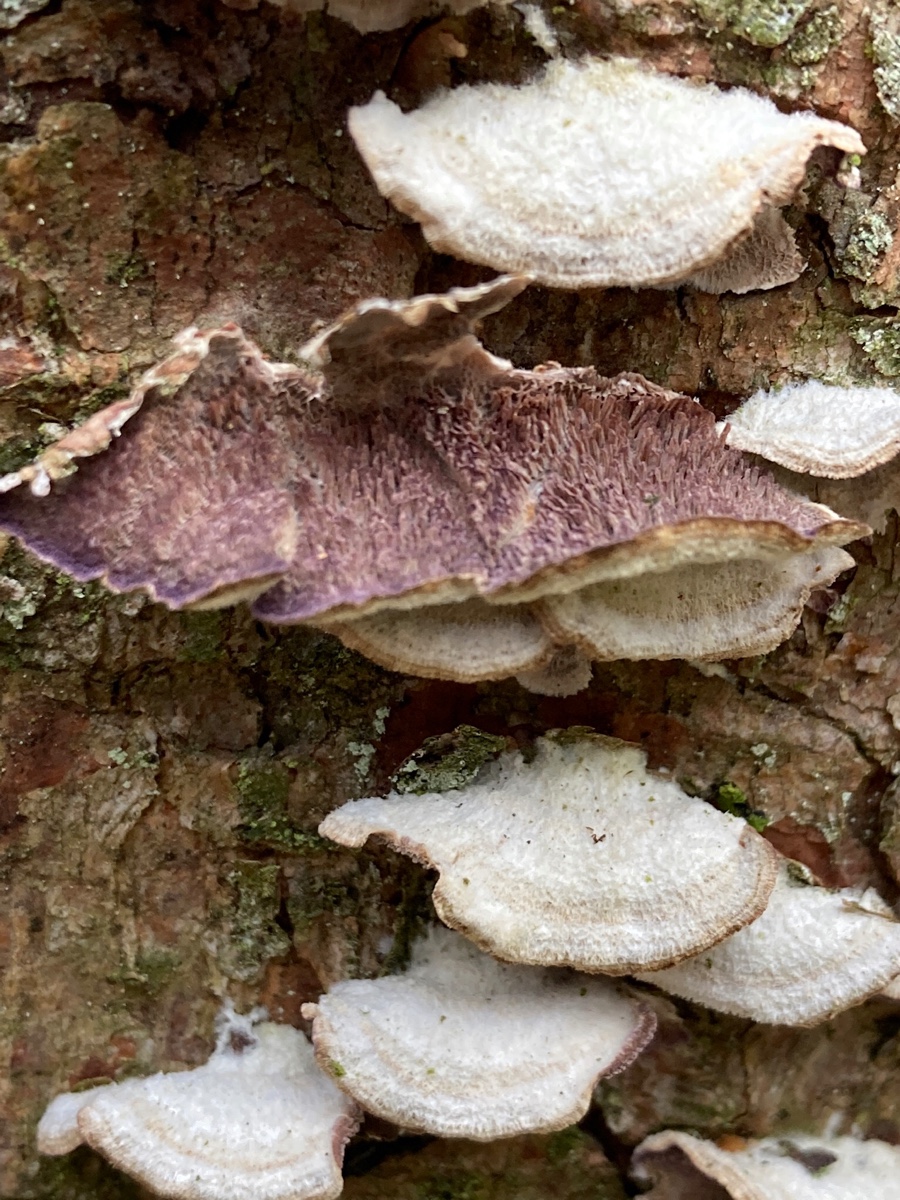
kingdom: Fungi
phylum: Basidiomycota
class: Agaricomycetes
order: Hymenochaetales
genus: Trichaptum
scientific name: Trichaptum fuscoviolaceum
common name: tandet violporesvamp
